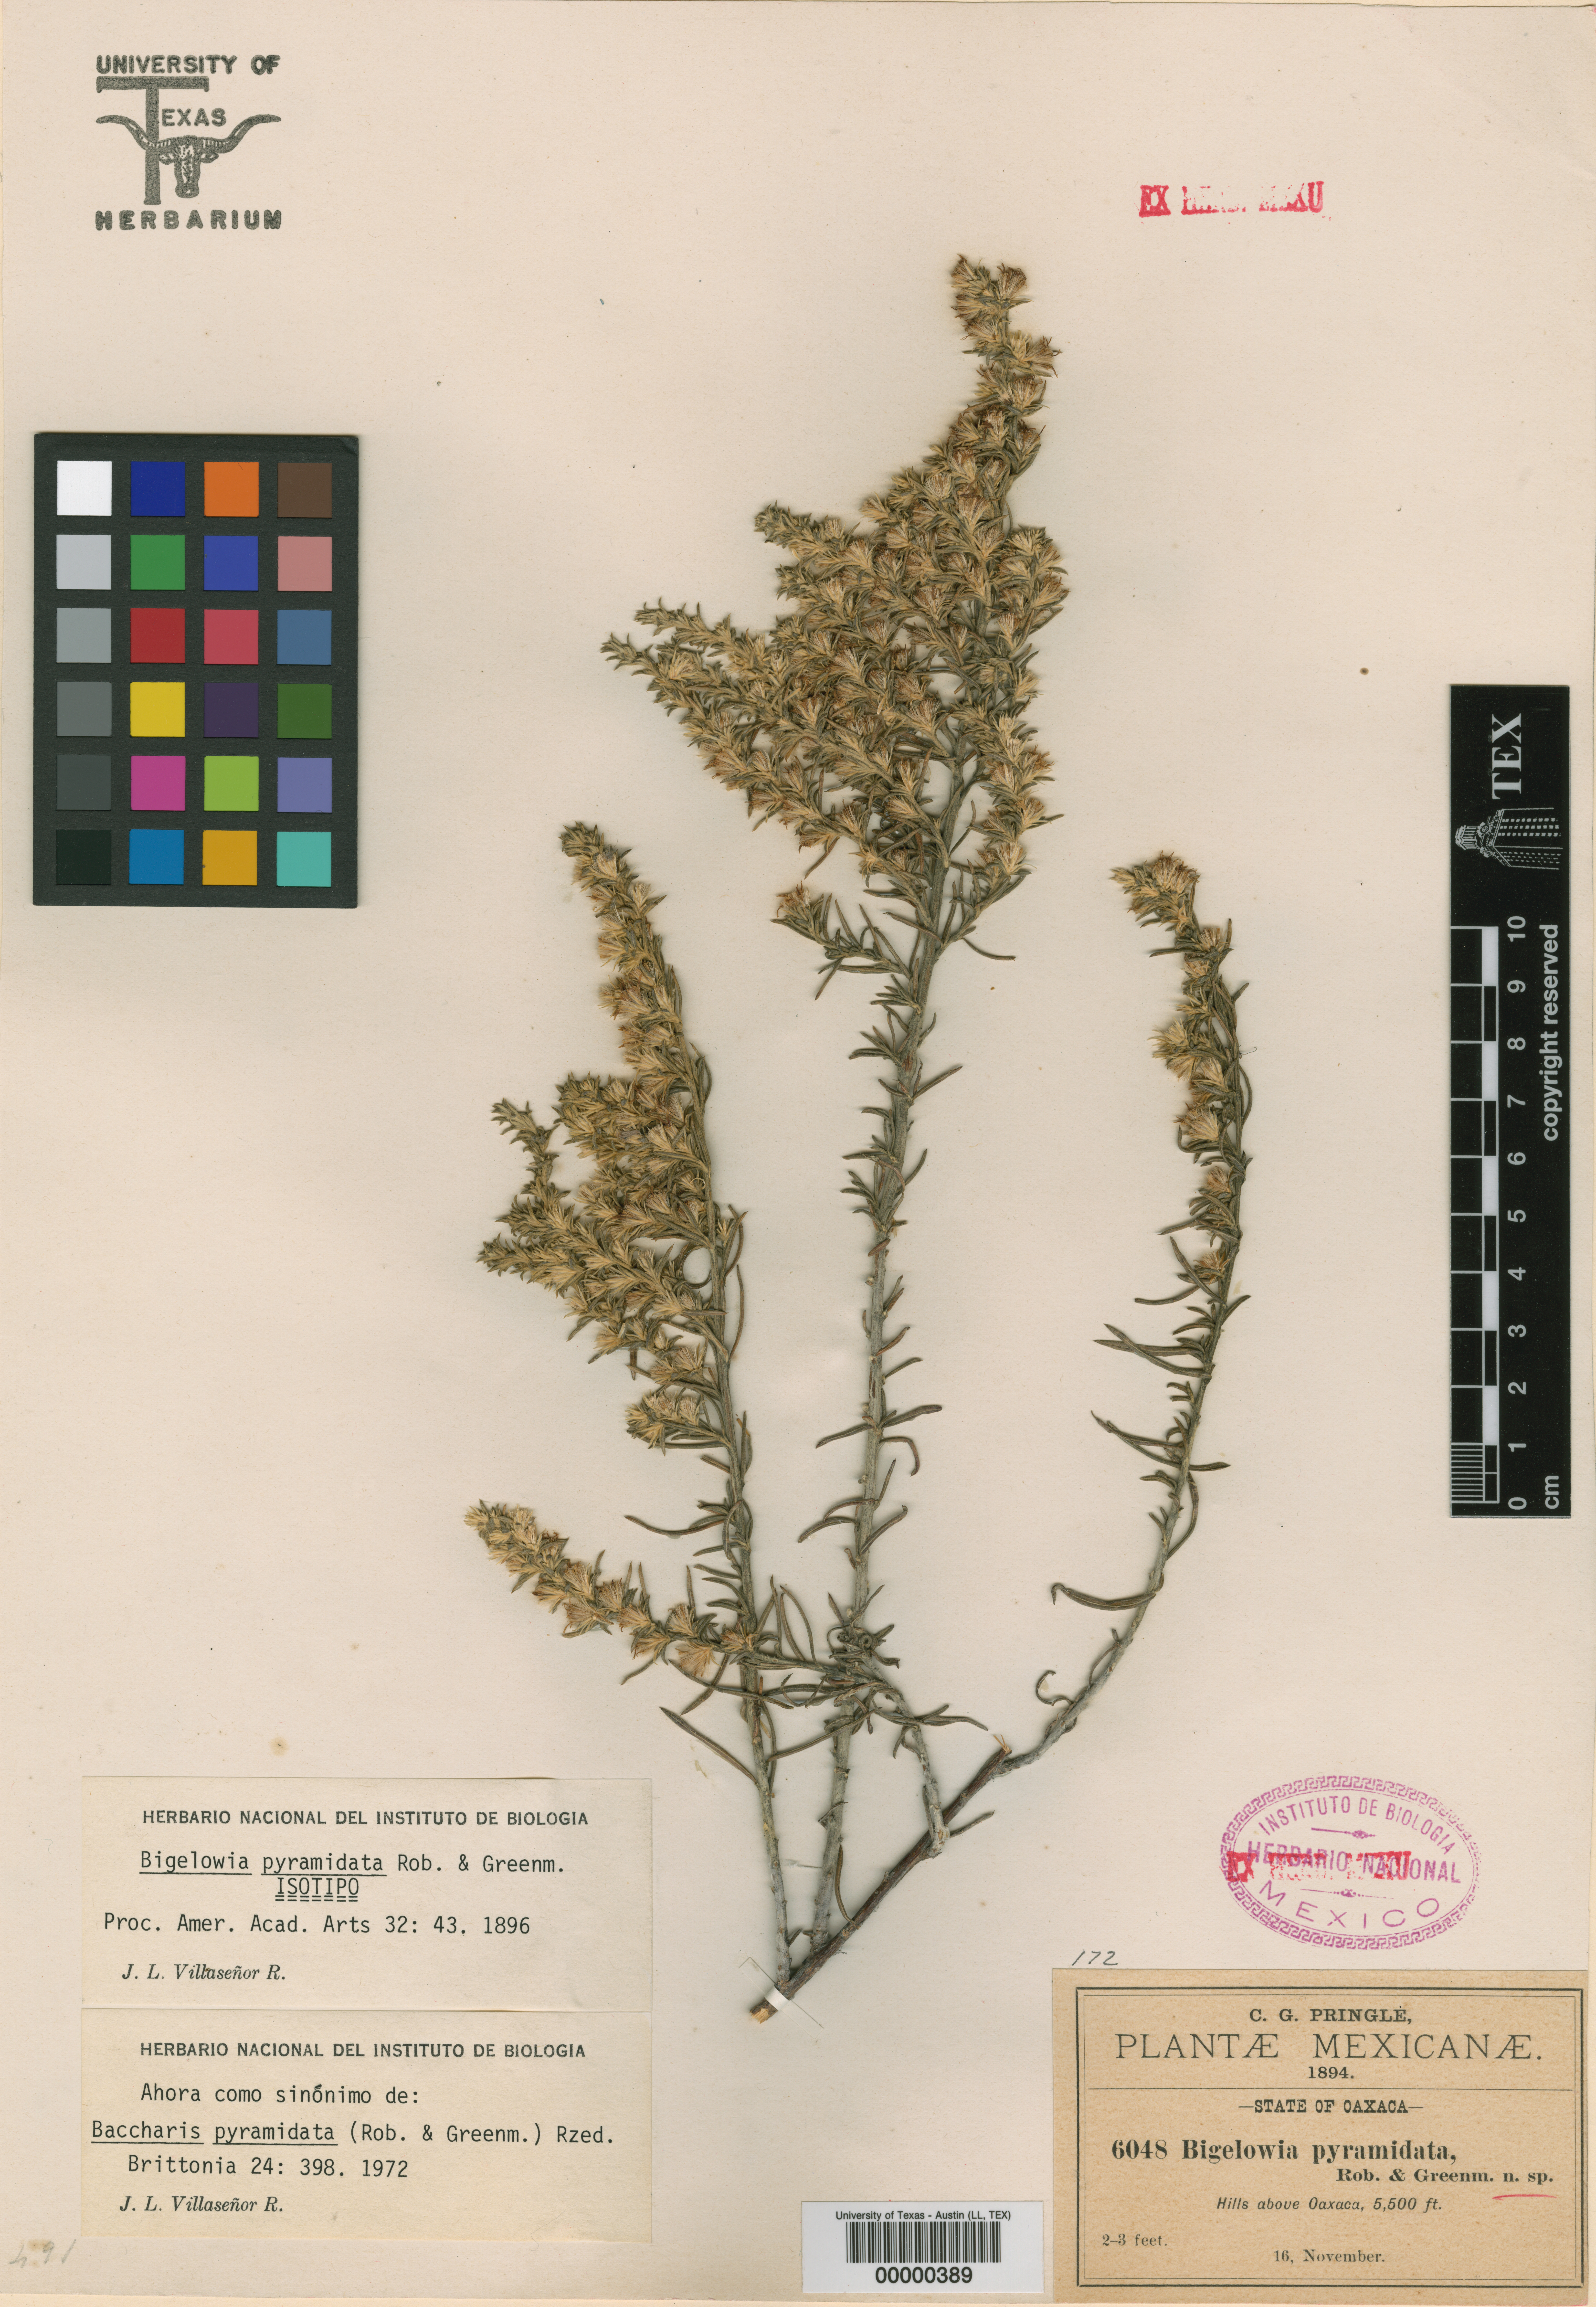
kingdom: Plantae
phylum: Tracheophyta
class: Magnoliopsida
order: Asterales
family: Asteraceae
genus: Aztecaster
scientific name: Aztecaster pyramidatus
